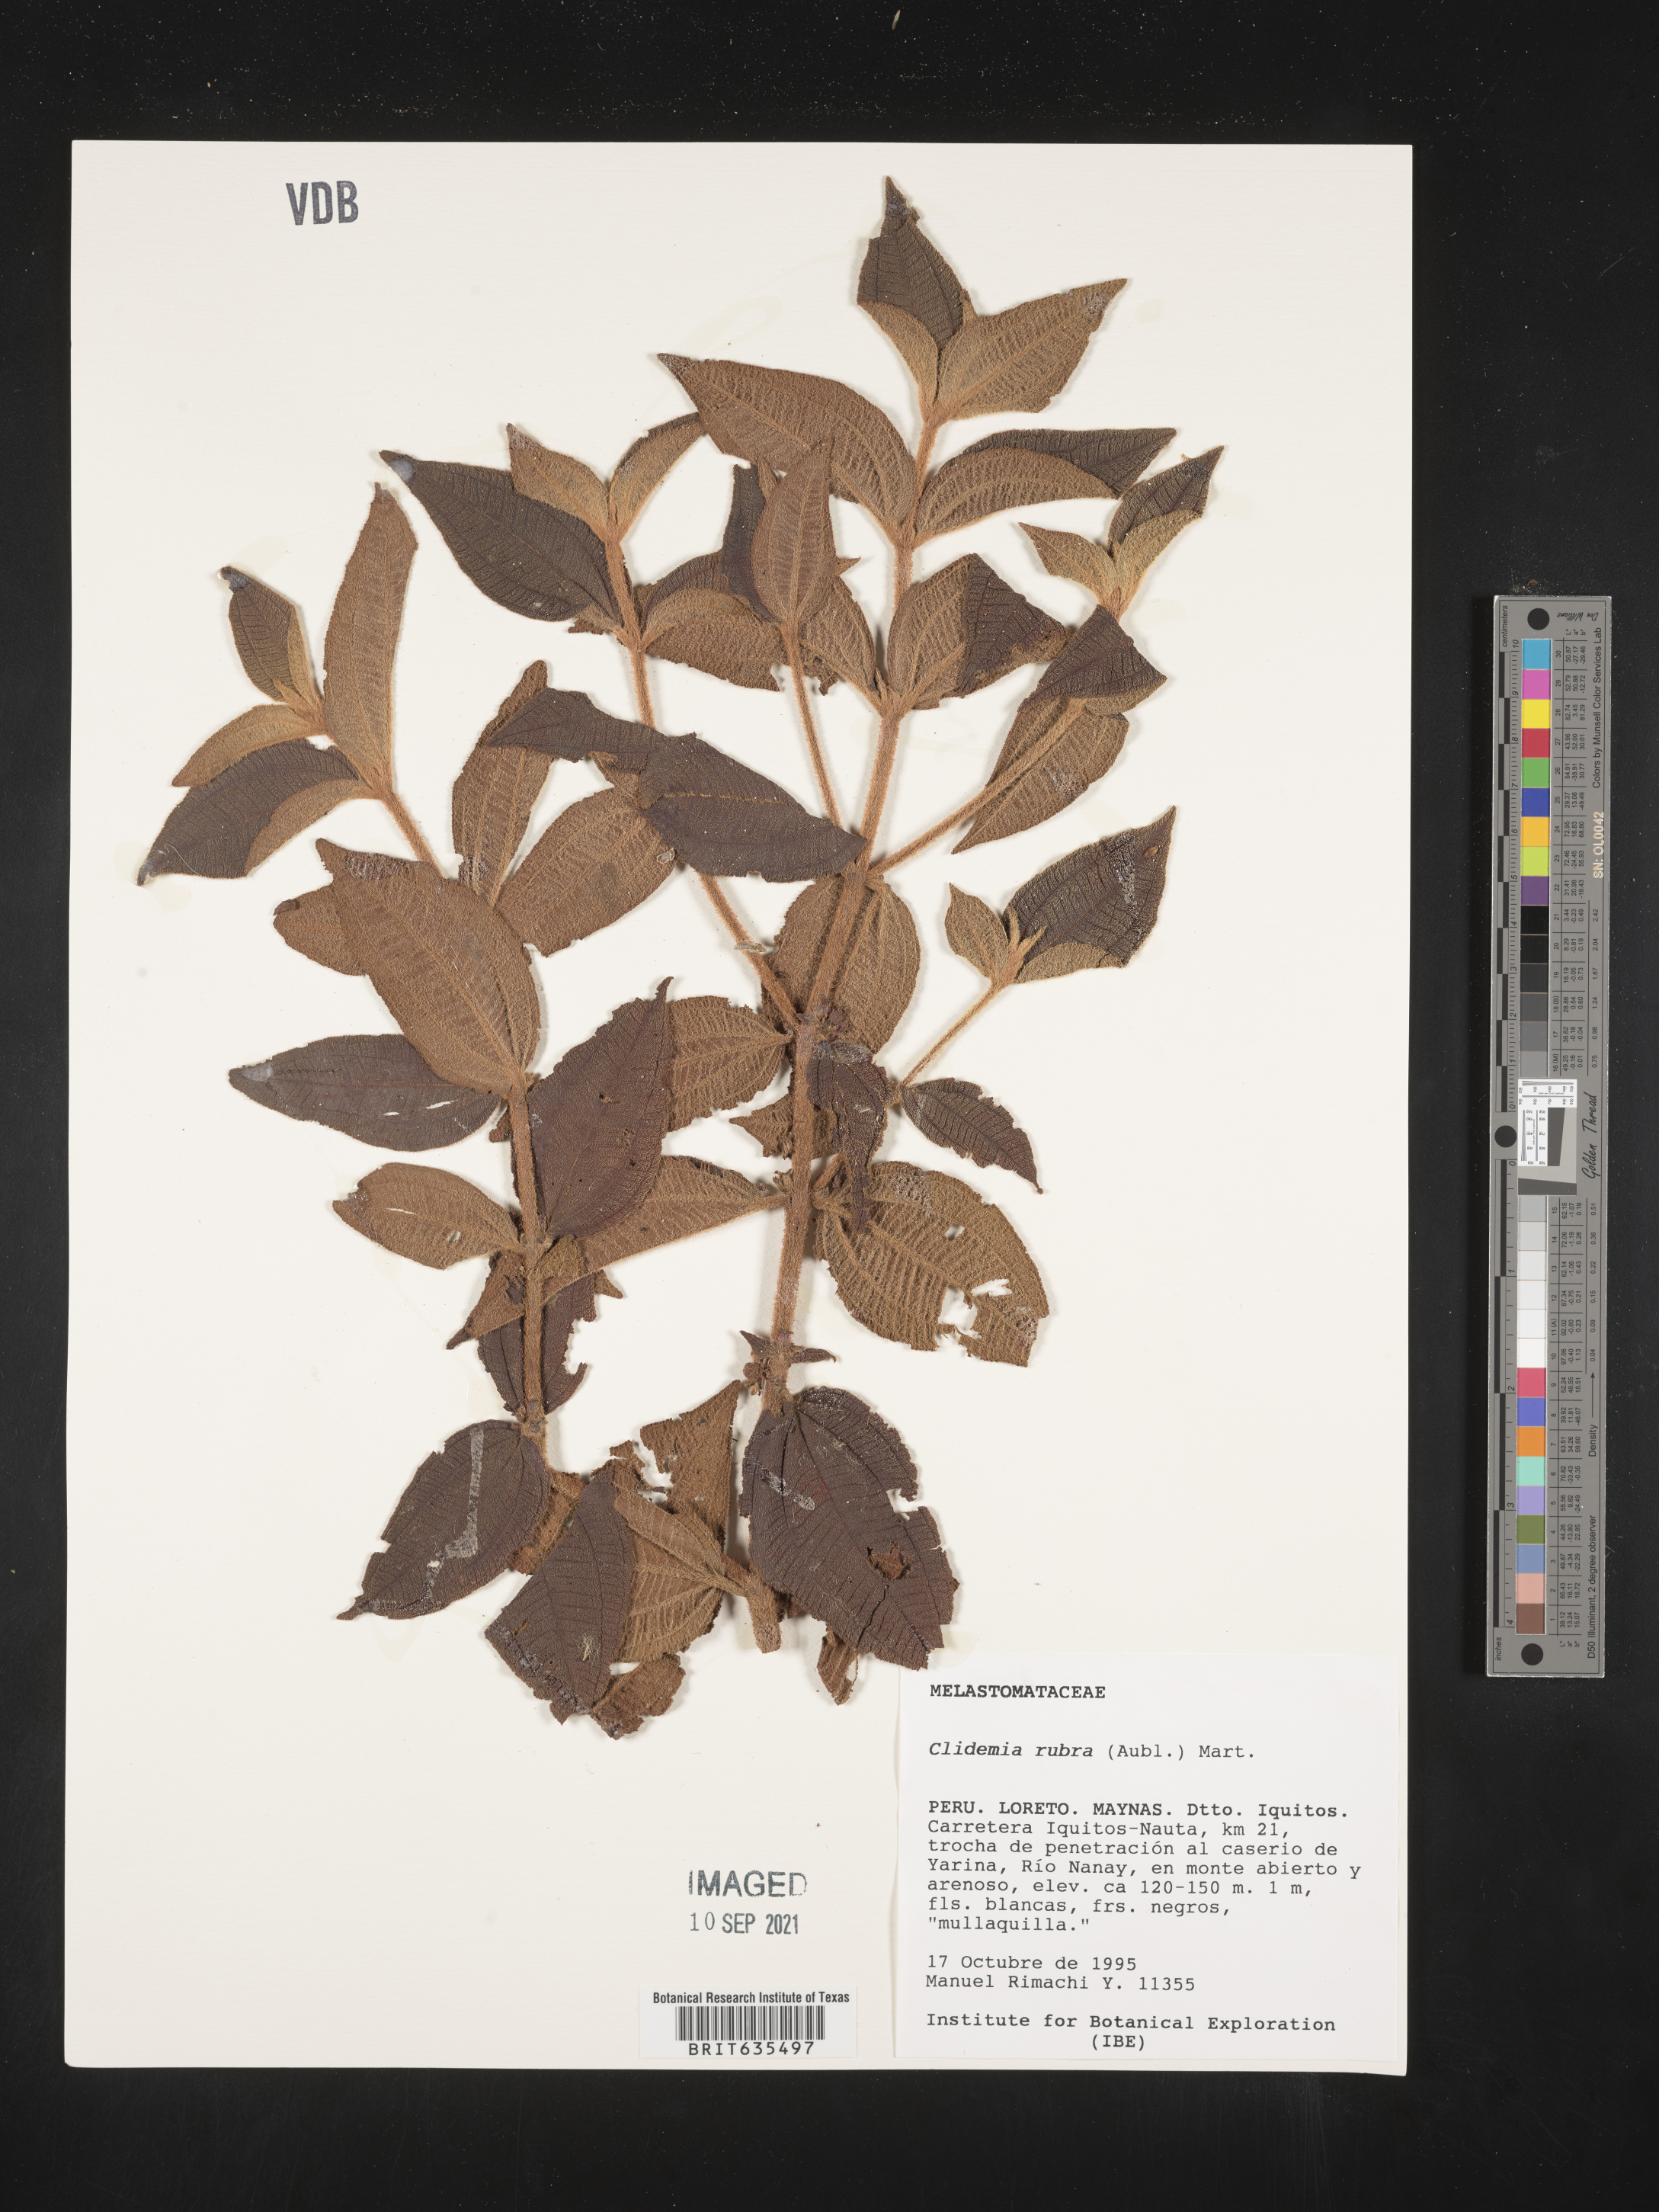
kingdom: Plantae
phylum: Tracheophyta
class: Magnoliopsida
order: Myrtales
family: Melastomataceae
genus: Miconia
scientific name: Miconia
